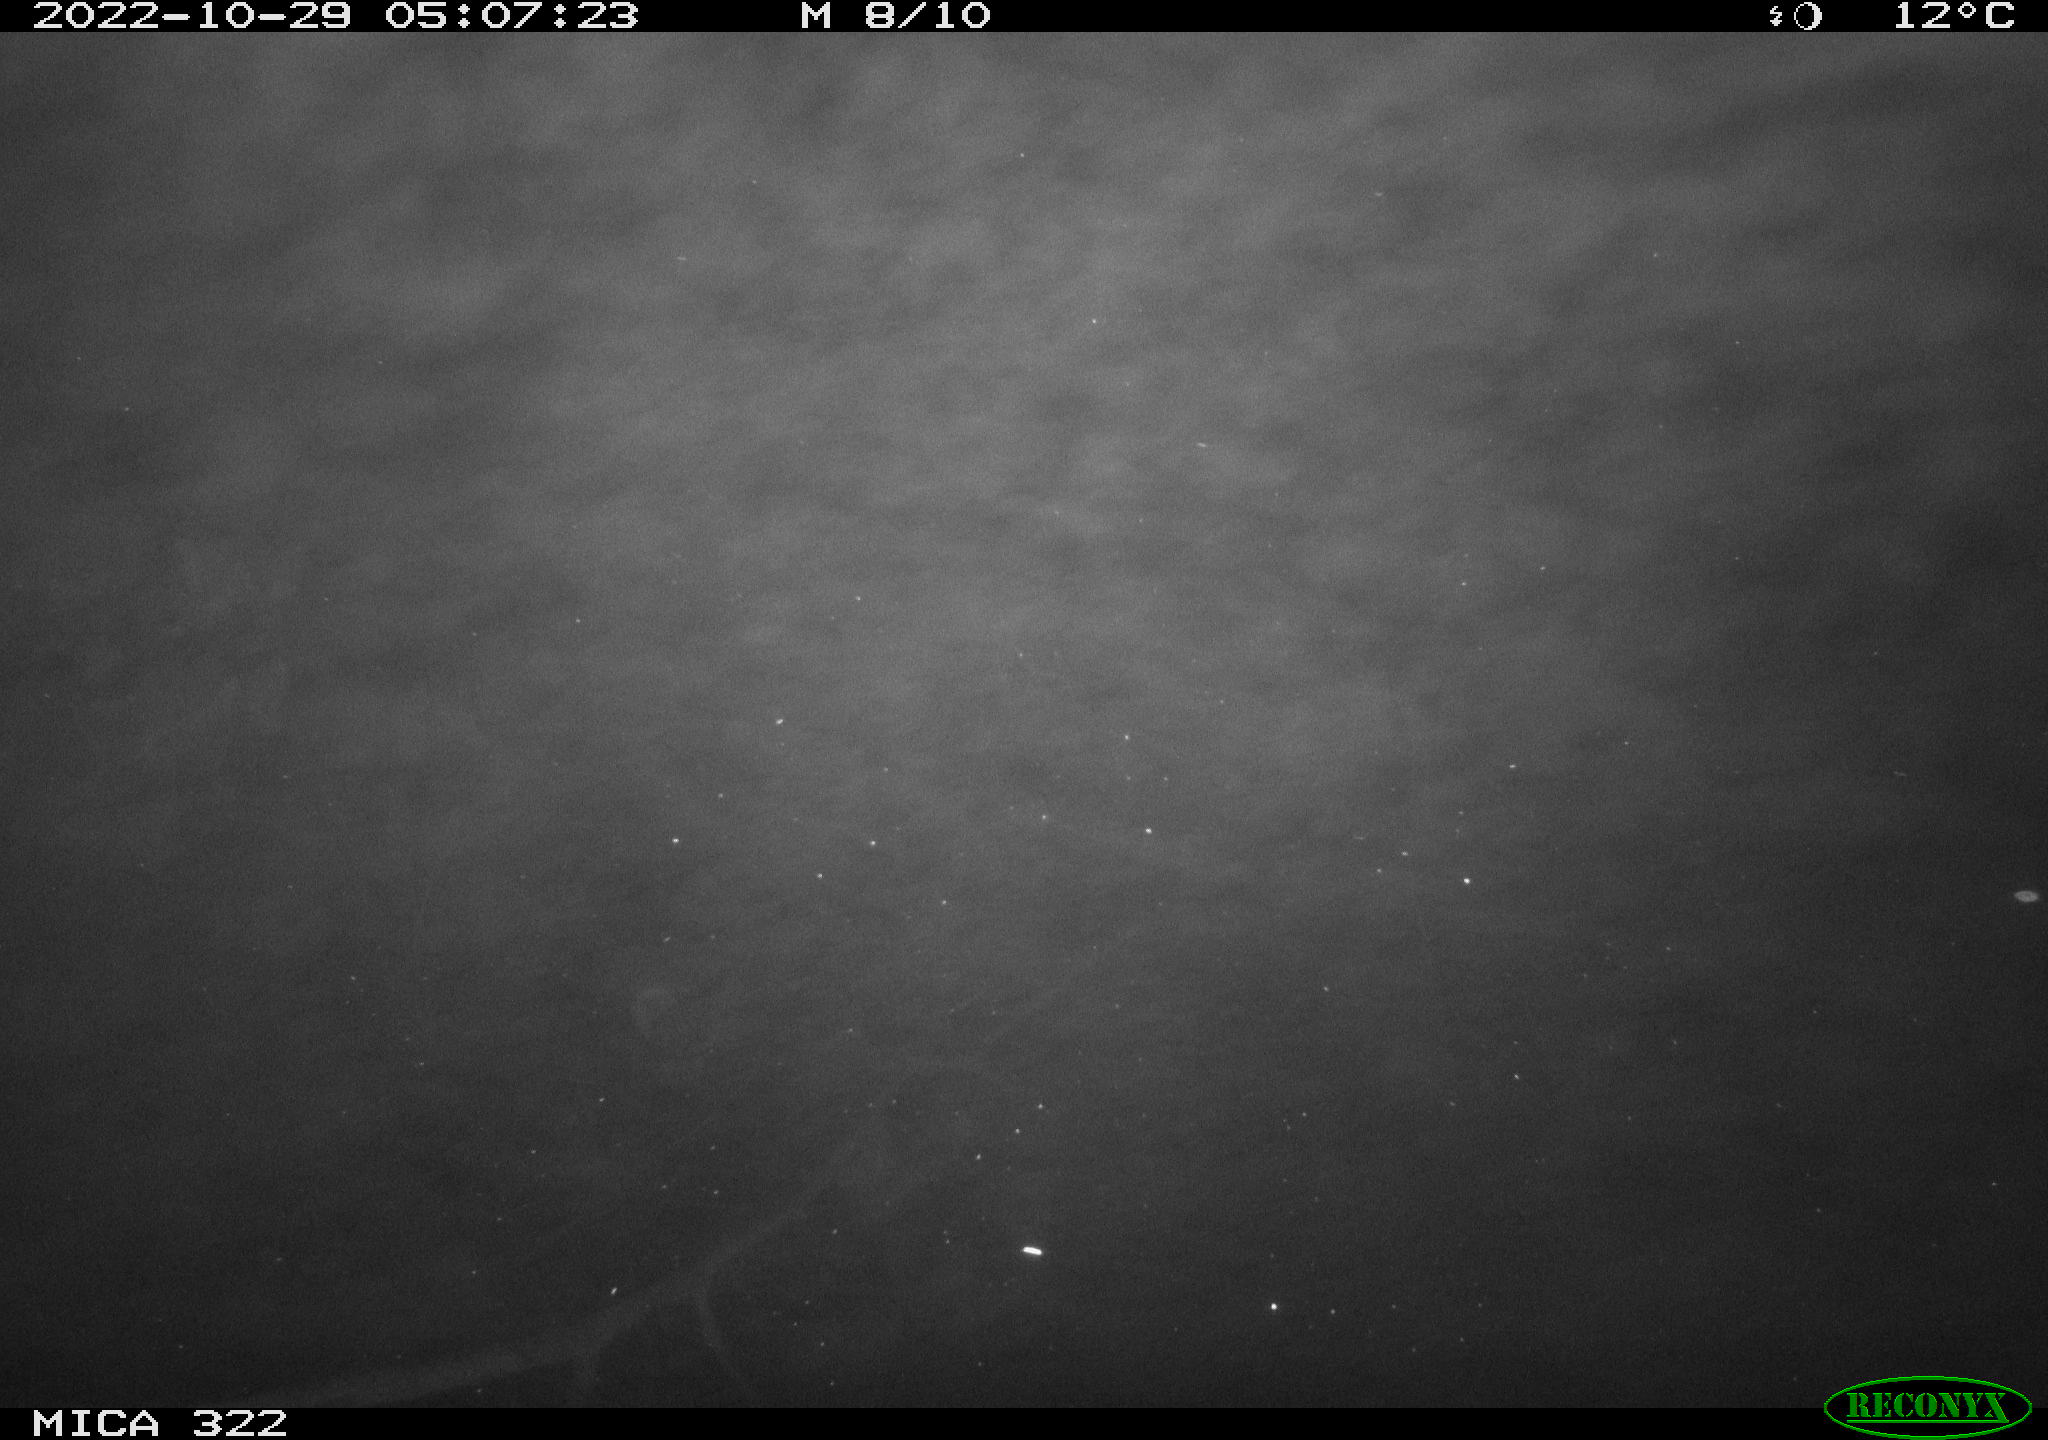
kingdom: Animalia
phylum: Chordata
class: Mammalia
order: Rodentia
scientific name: Rodentia
